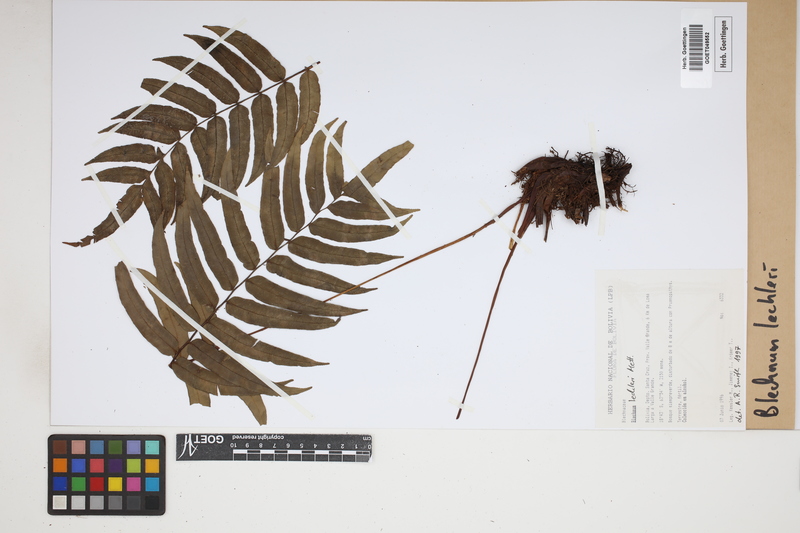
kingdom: Plantae
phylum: Tracheophyta
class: Polypodiopsida
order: Polypodiales
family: Blechnaceae
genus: Parablechnum
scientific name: Parablechnum lechleri
